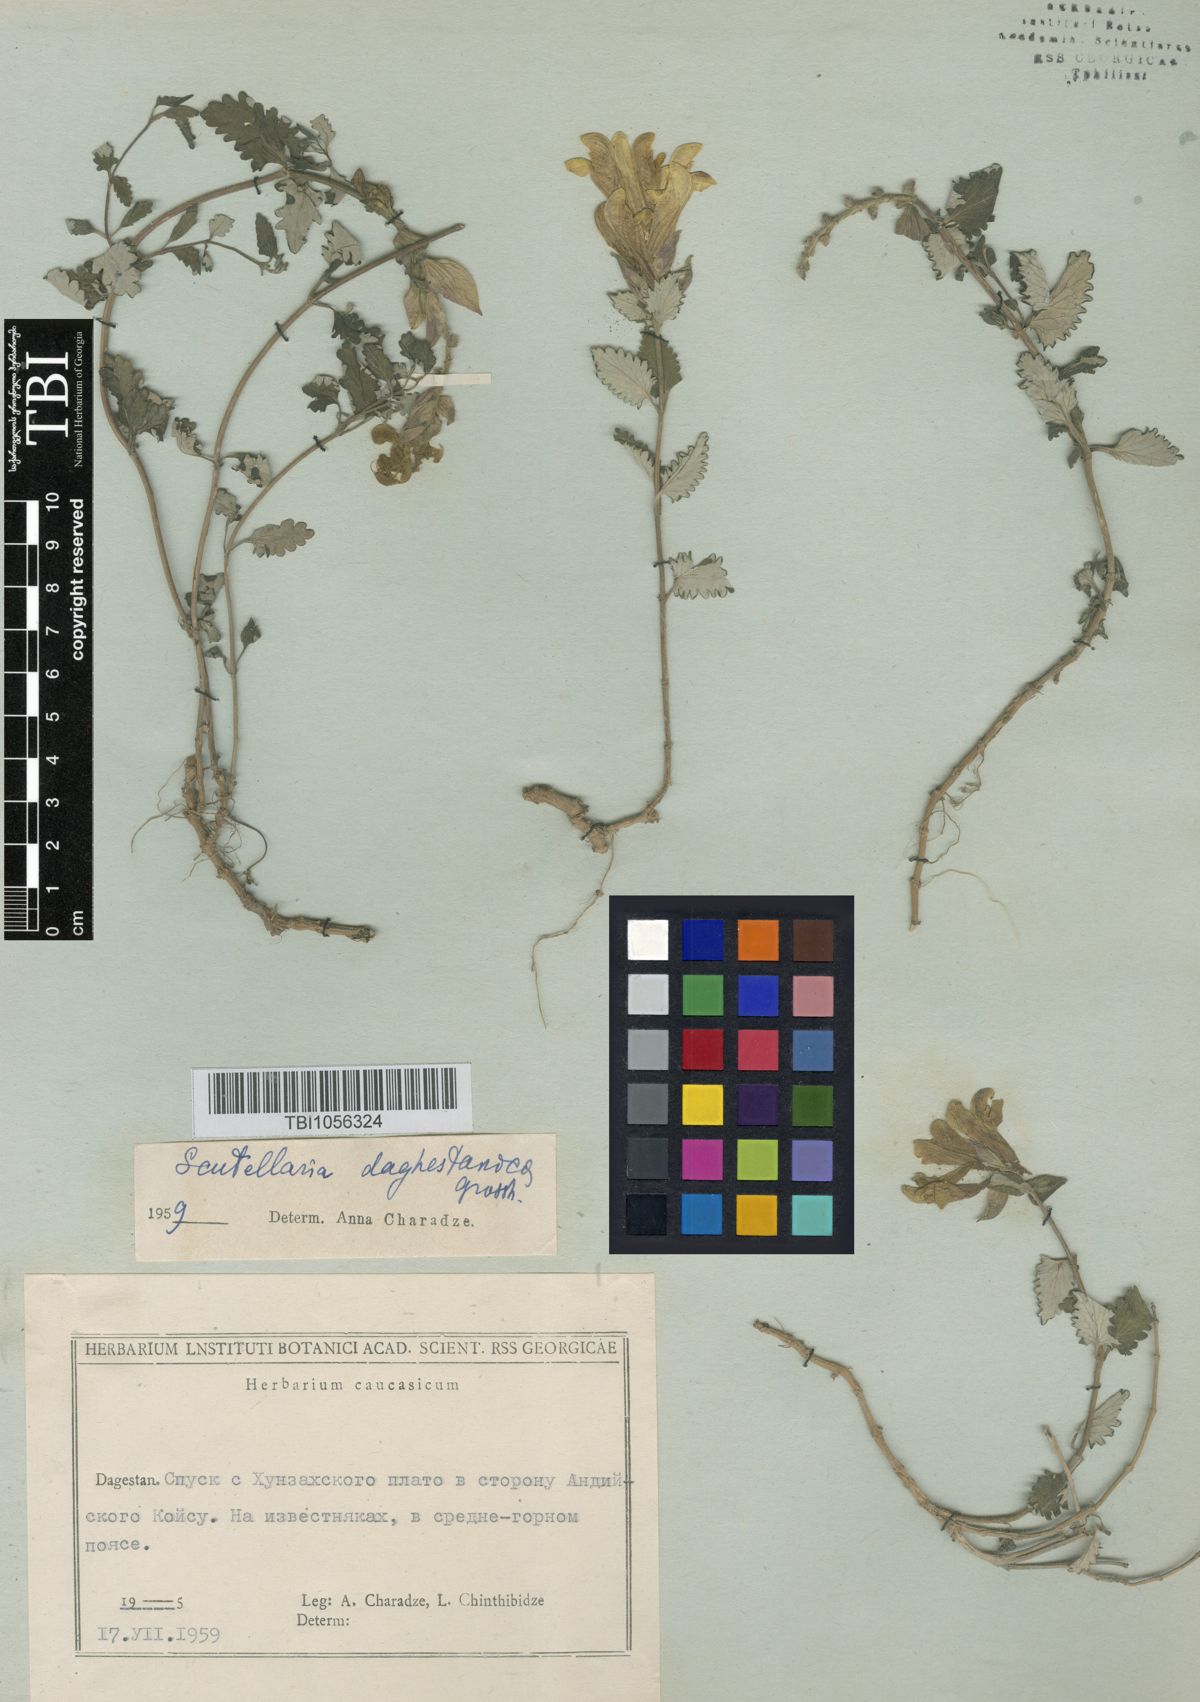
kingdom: Plantae
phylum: Tracheophyta
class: Magnoliopsida
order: Lamiales
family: Lamiaceae
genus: Scutellaria
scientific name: Scutellaria daghestanica
